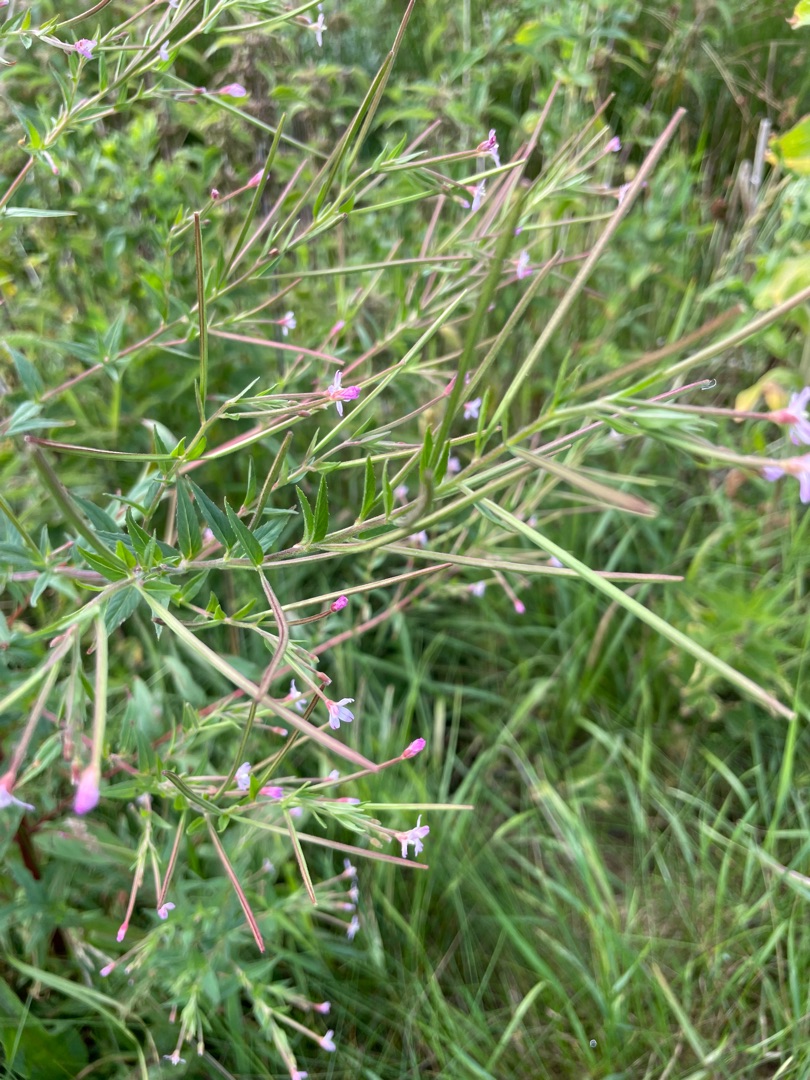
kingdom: Plantae
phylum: Tracheophyta
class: Magnoliopsida
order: Myrtales
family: Onagraceae
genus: Epilobium
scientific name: Epilobium
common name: Dueurtslægten
